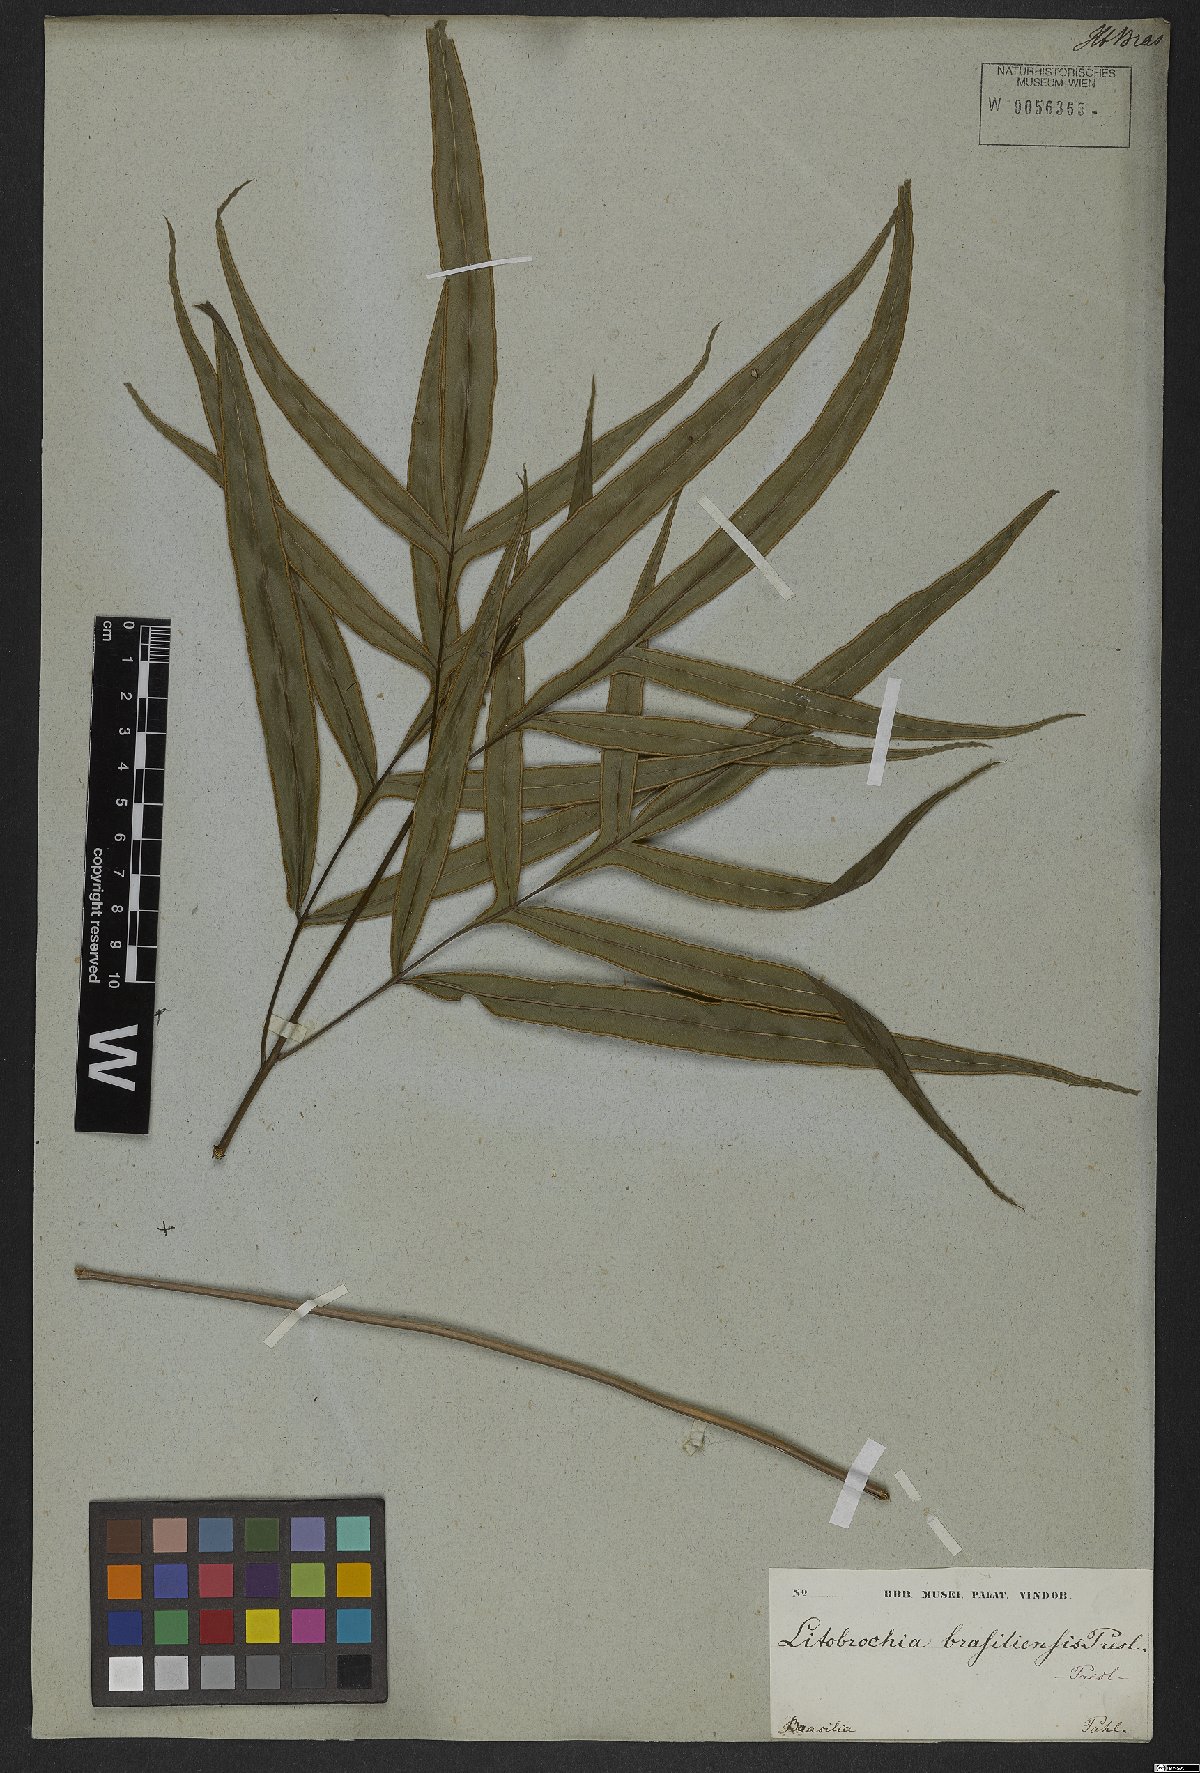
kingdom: Plantae
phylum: Tracheophyta
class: Polypodiopsida
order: Polypodiales
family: Pteridaceae
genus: Pteris
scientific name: Pteris denticulata
